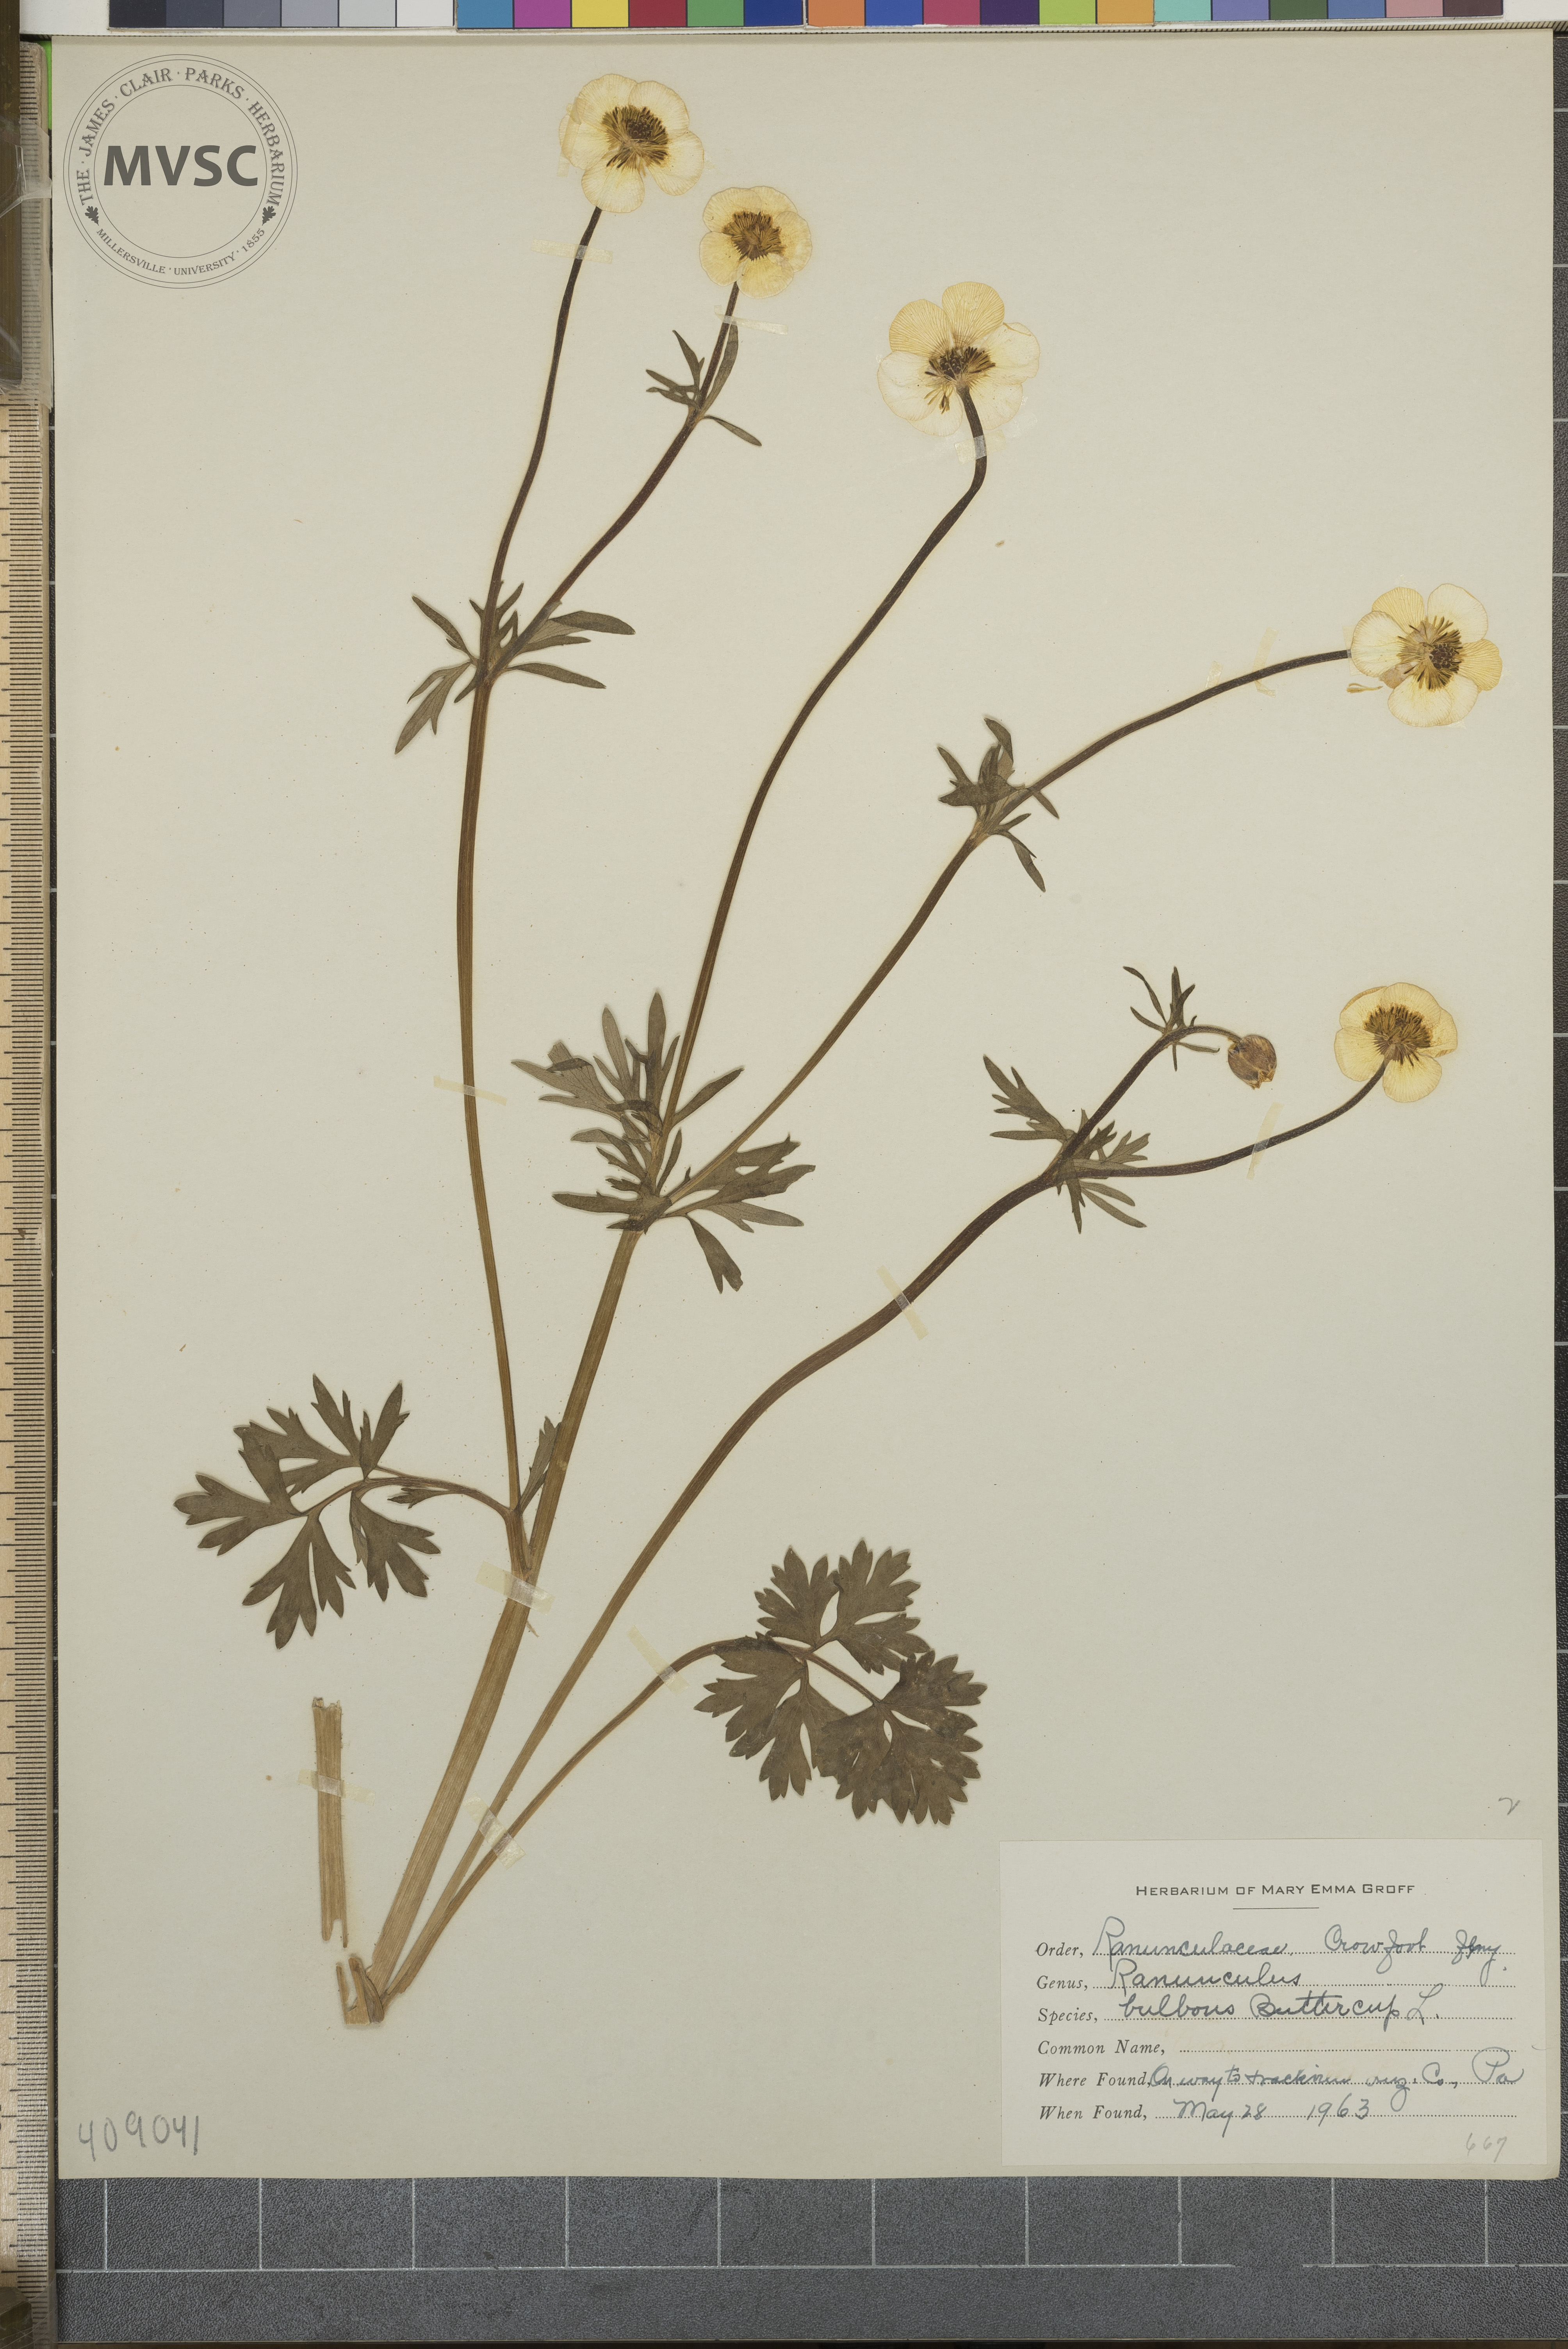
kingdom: Plantae
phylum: Tracheophyta
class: Magnoliopsida
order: Ranunculales
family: Ranunculaceae
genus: Ranunculus
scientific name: Ranunculus bulbosus
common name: Bulbous Buttercup
